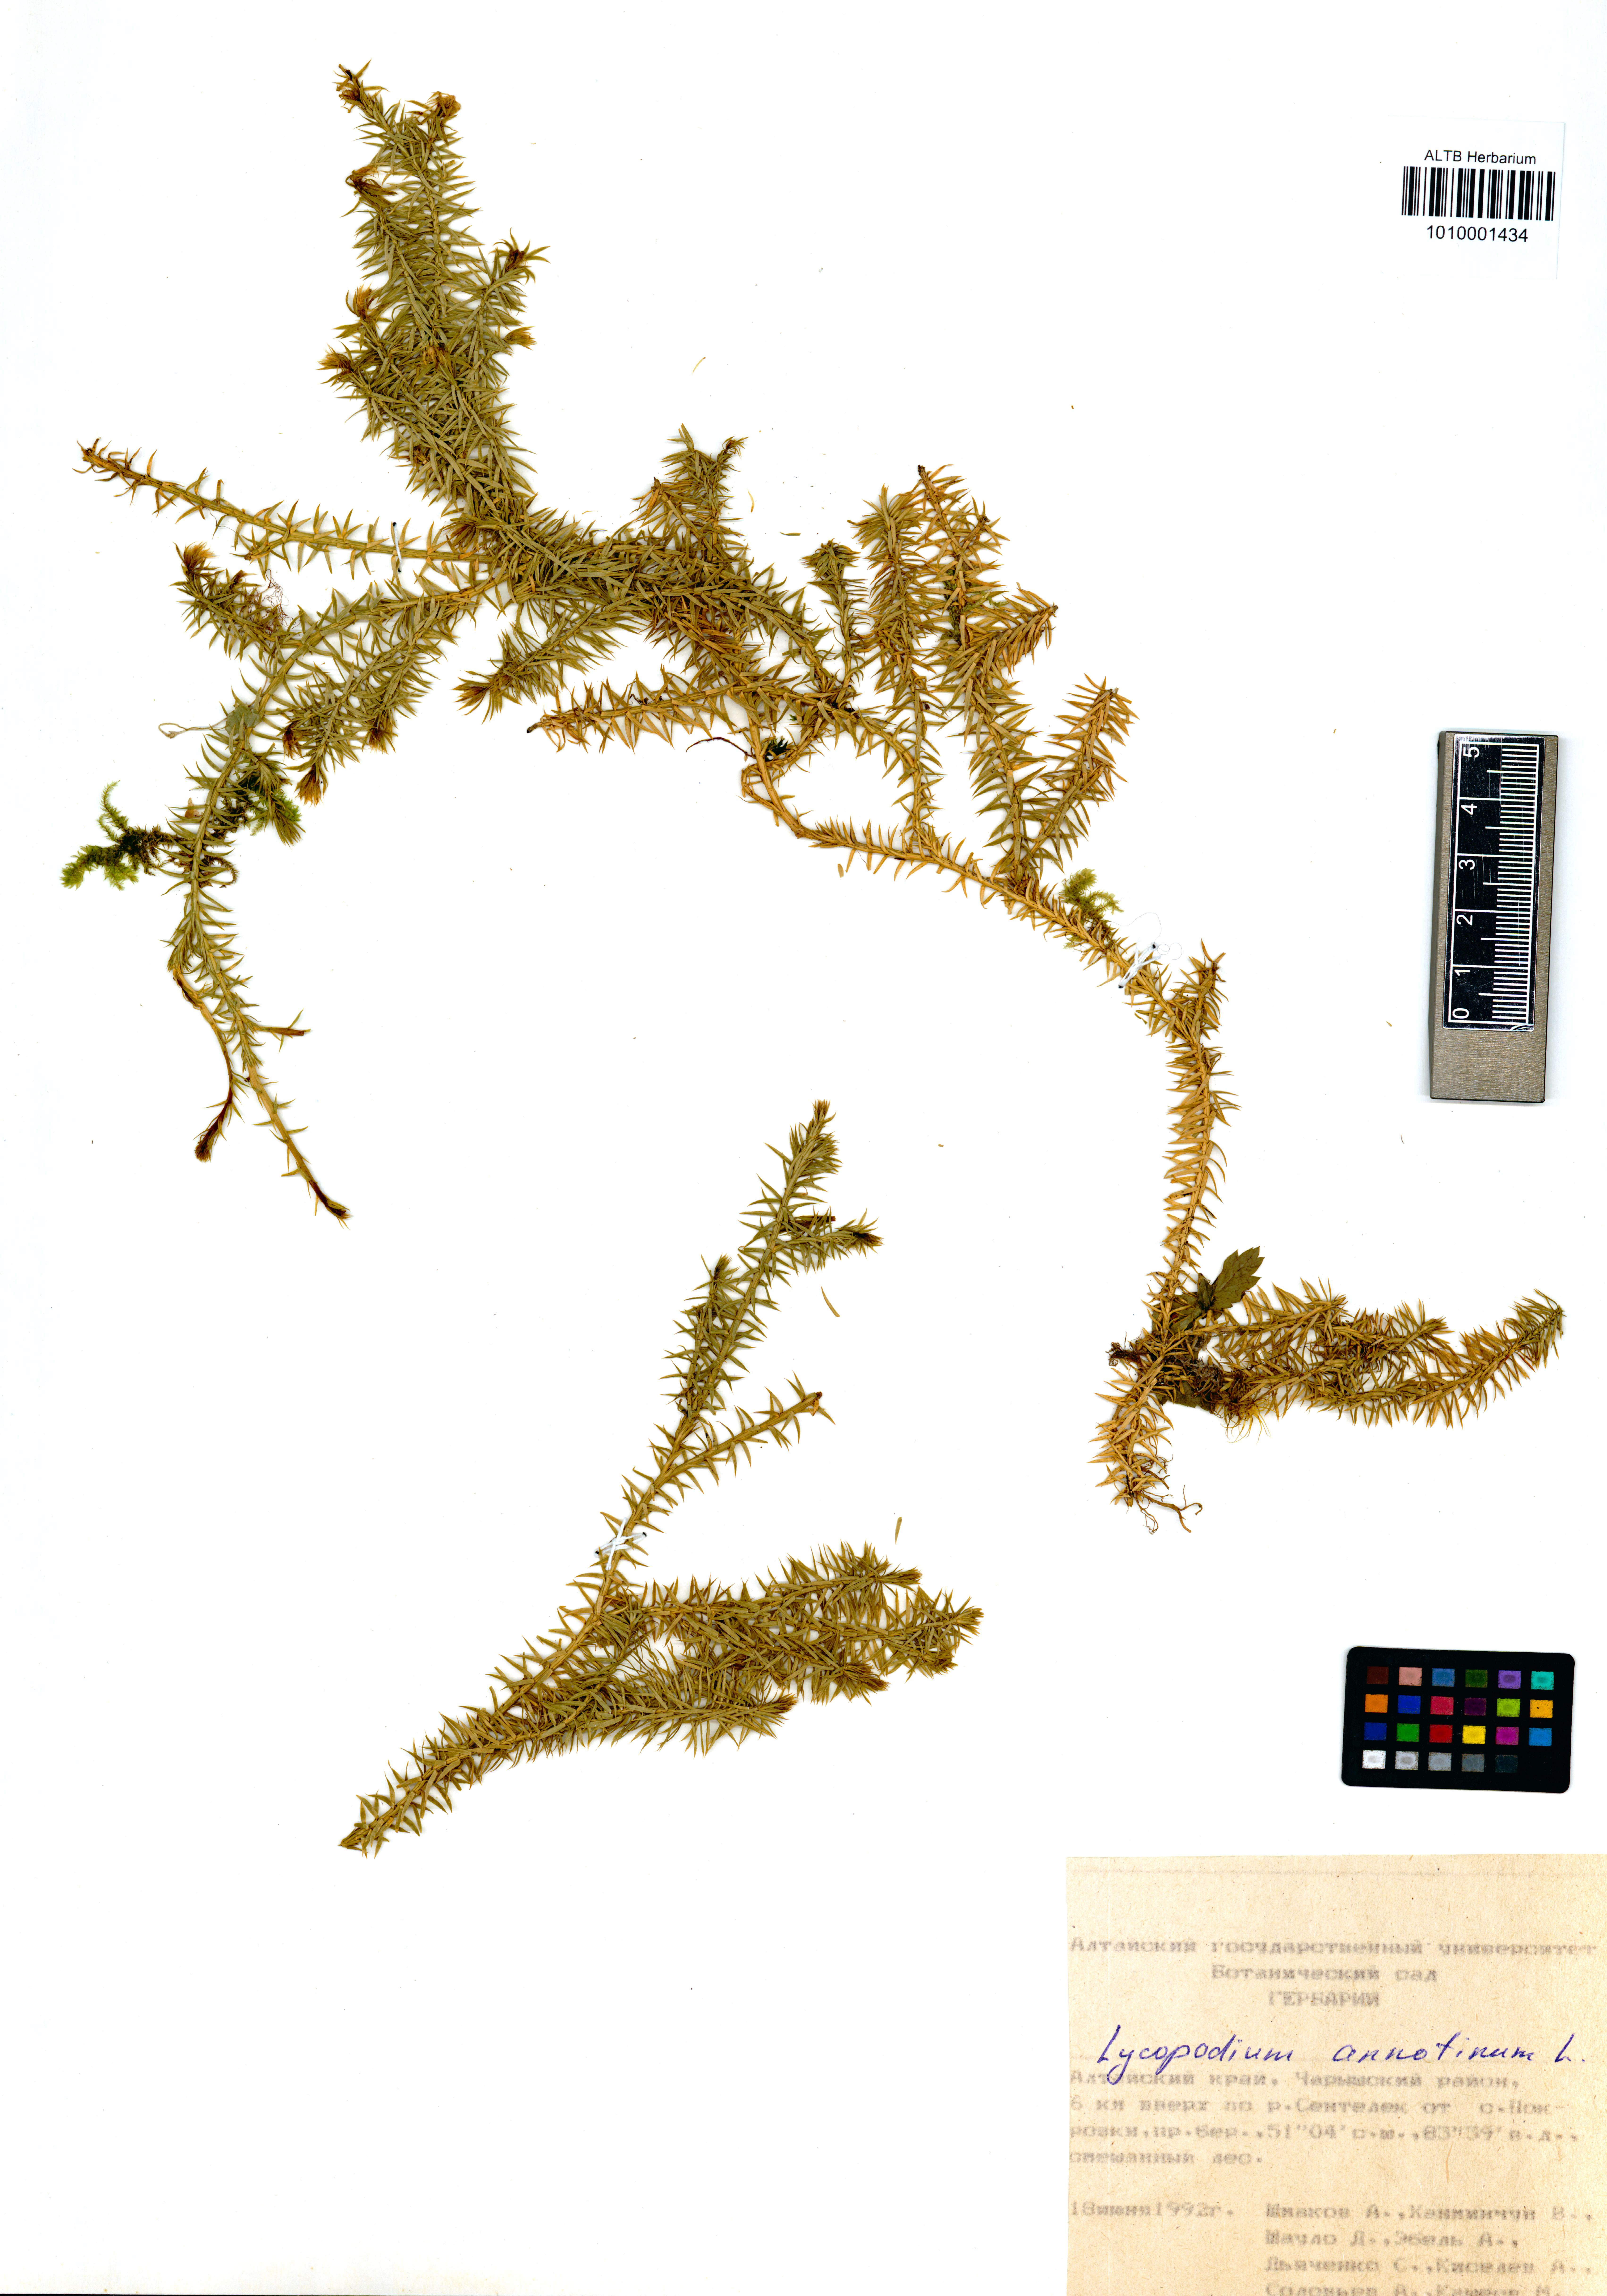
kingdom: Plantae
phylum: Tracheophyta
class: Lycopodiopsida
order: Lycopodiales
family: Lycopodiaceae
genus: Spinulum
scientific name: Spinulum annotinum
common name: Interrupted club-moss
